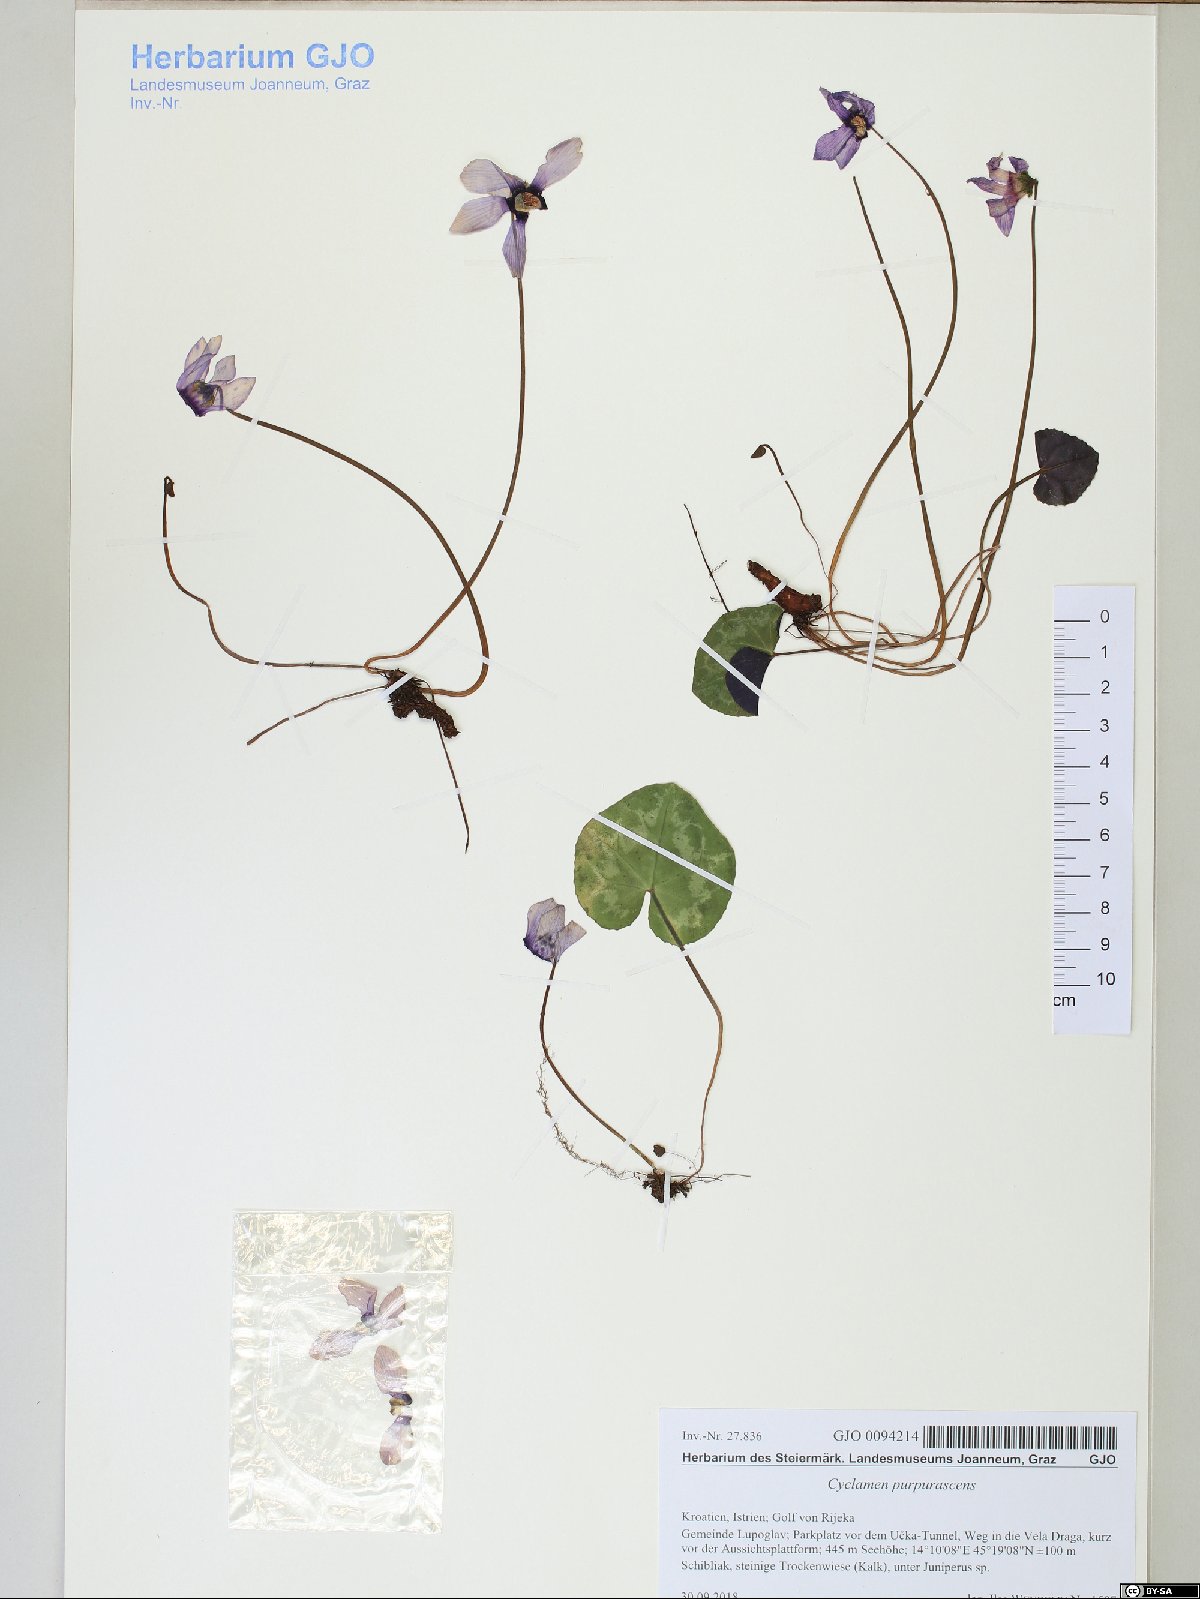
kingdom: Plantae
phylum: Tracheophyta
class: Magnoliopsida
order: Ericales
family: Primulaceae
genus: Cyclamen
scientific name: Cyclamen purpurascens
